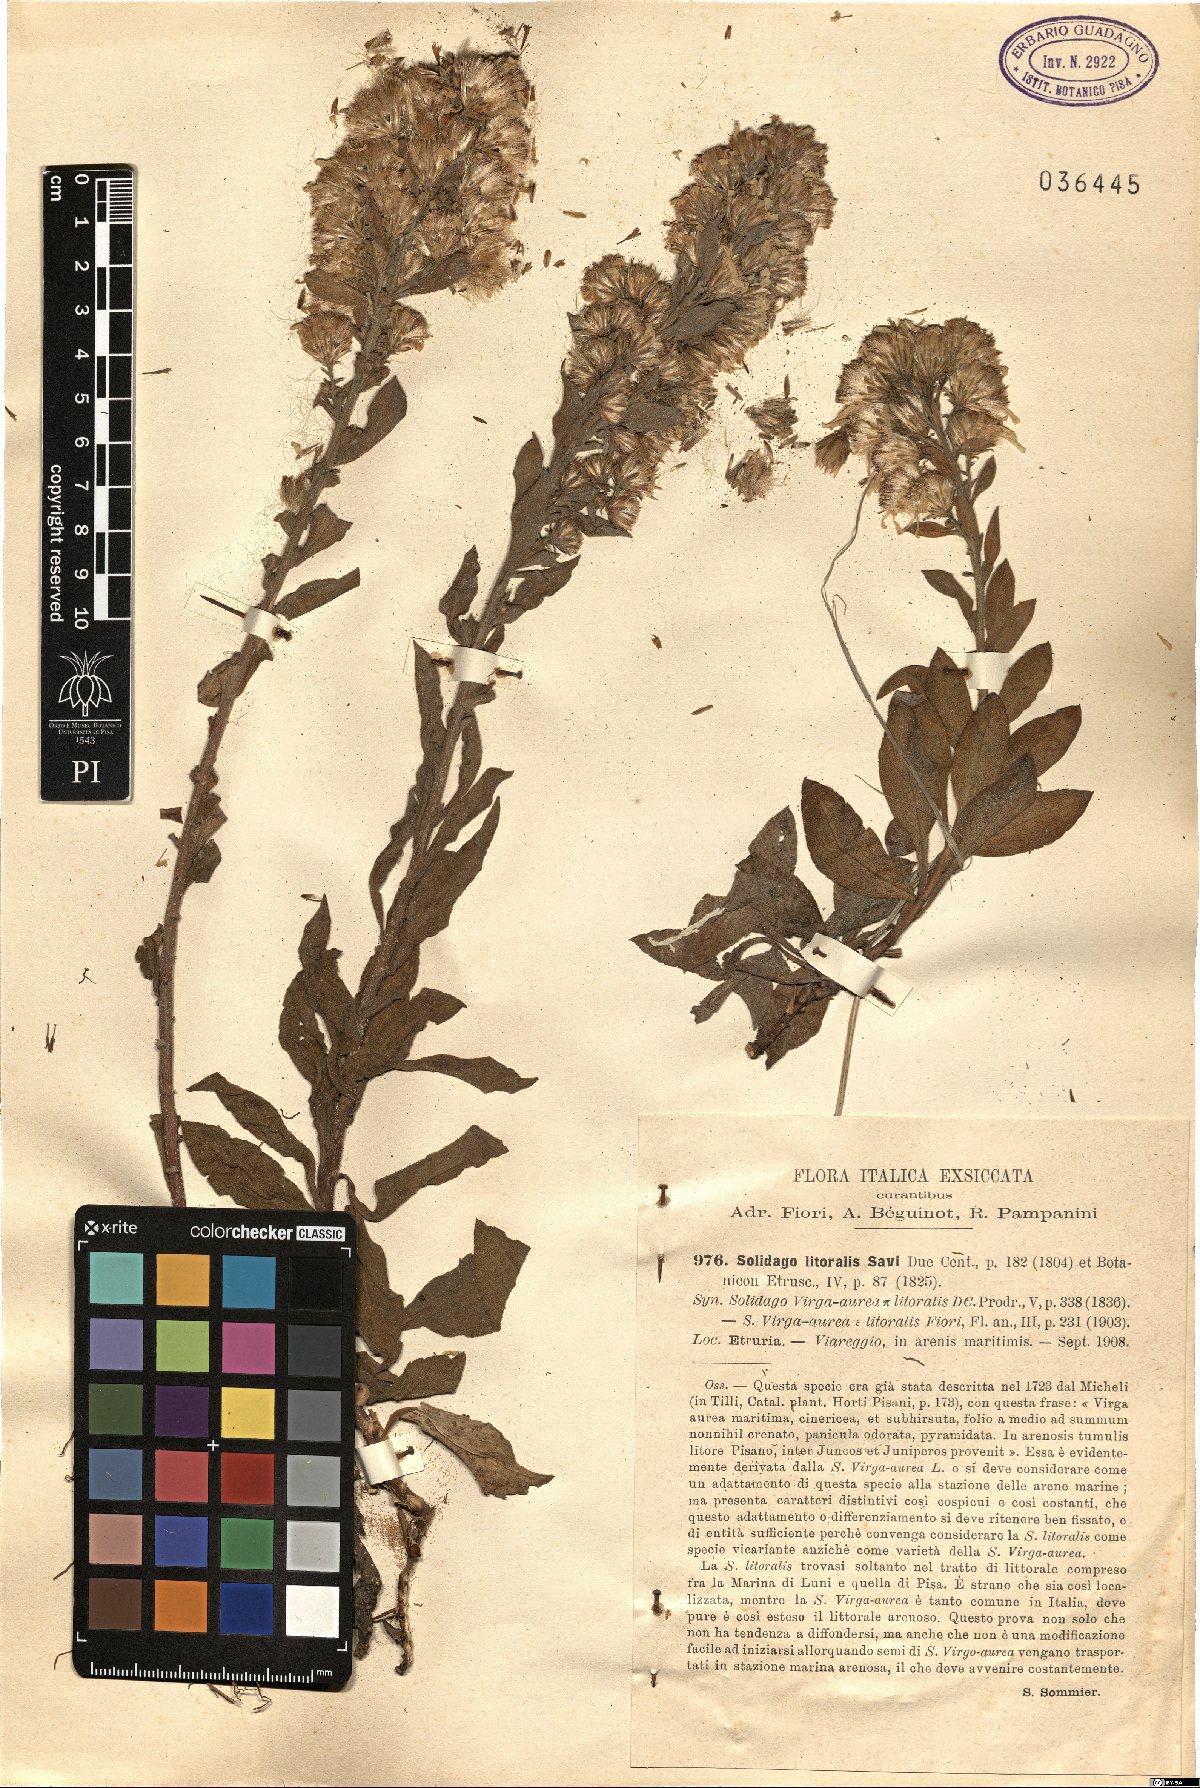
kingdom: Plantae
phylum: Tracheophyta
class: Magnoliopsida
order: Asterales
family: Asteraceae
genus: Solidago
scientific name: Solidago litoralis
